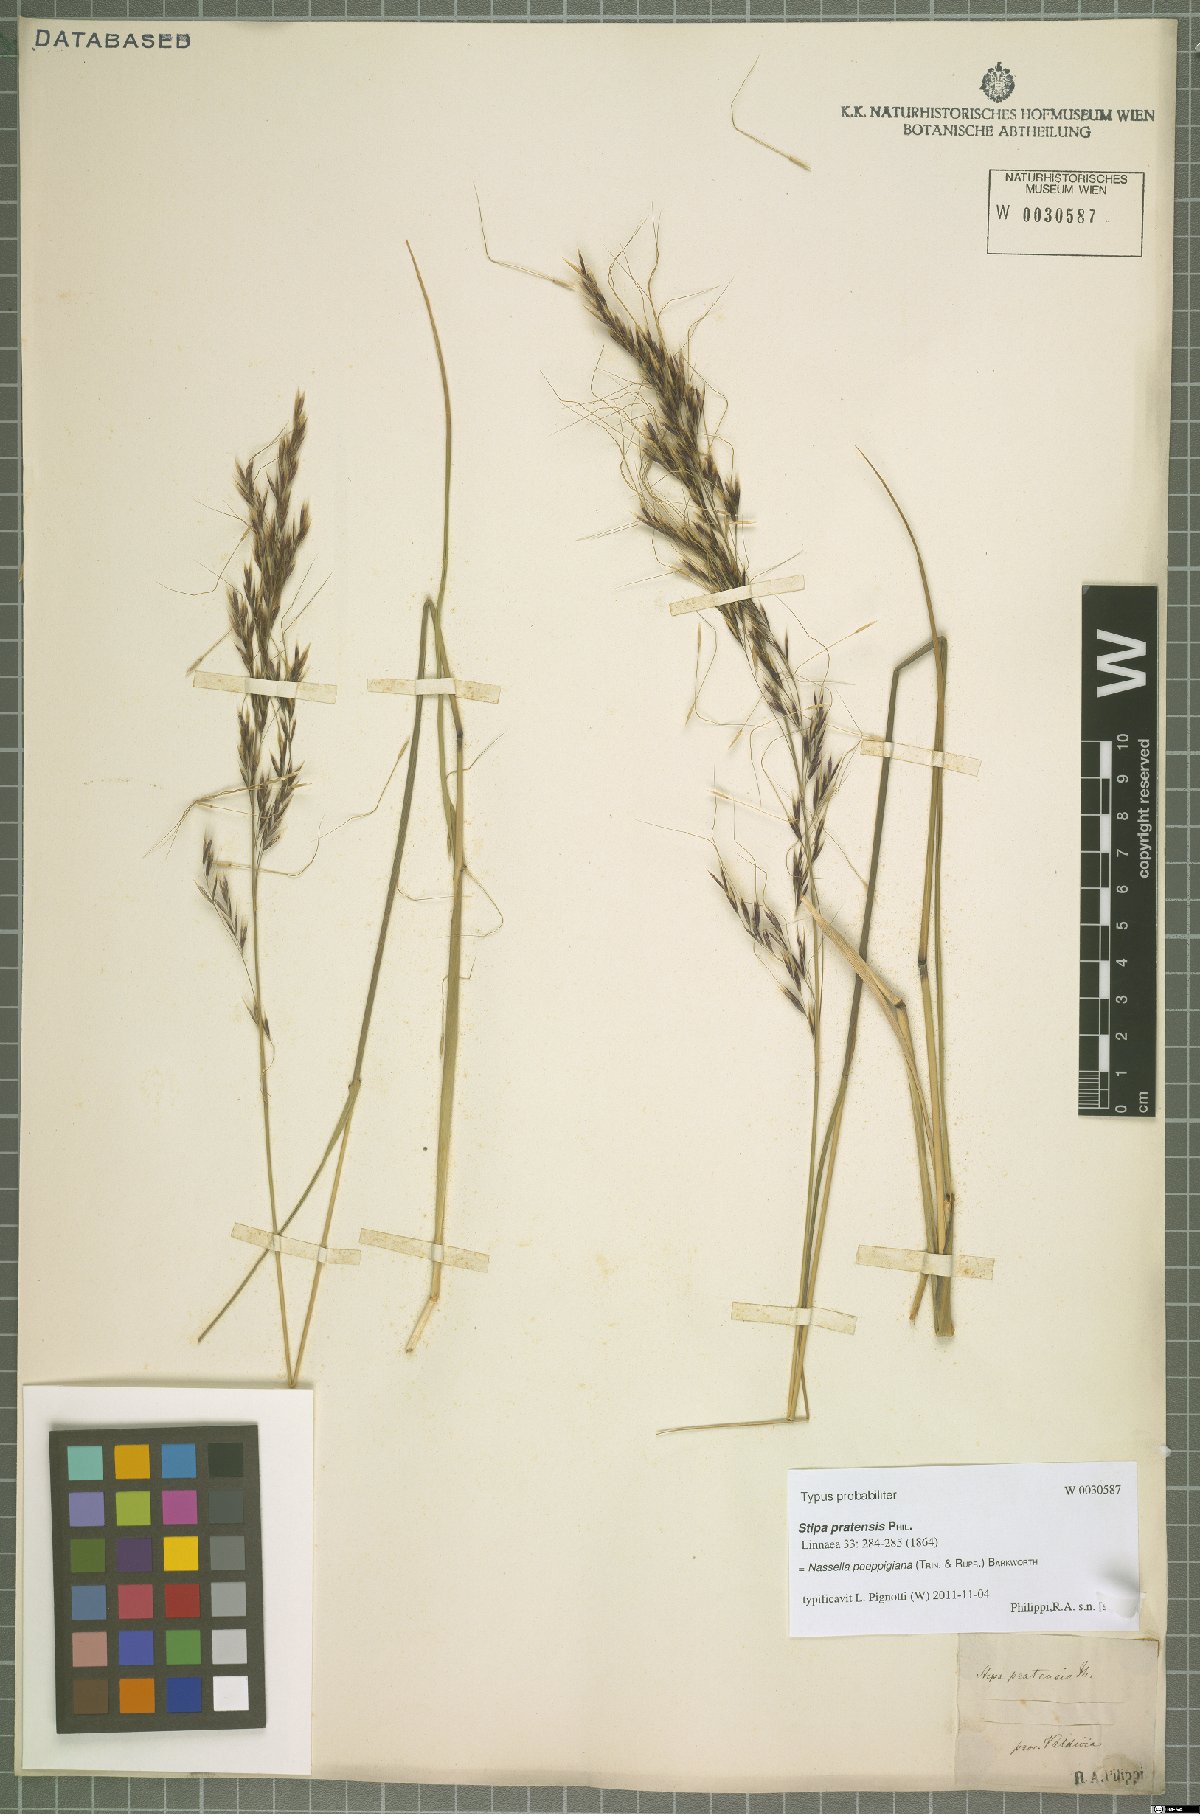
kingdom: Plantae
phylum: Tracheophyta
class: Liliopsida
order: Poales
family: Poaceae
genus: Nassella
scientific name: Nassella poeppigiana
